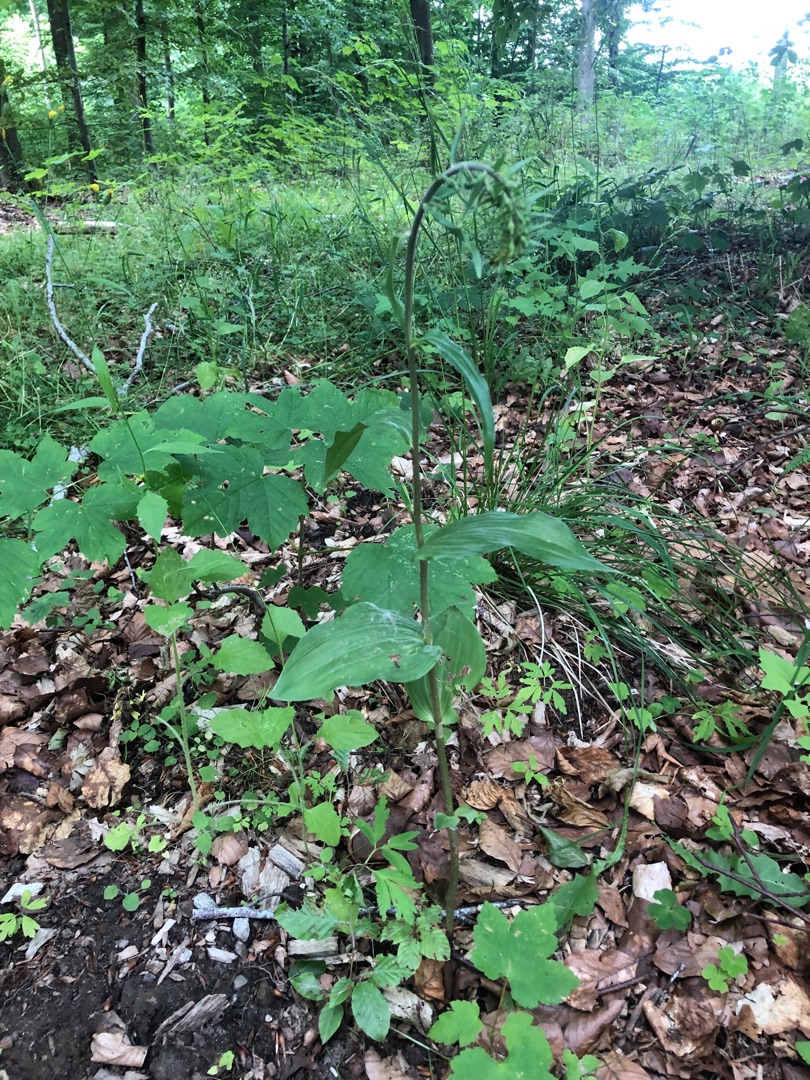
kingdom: Plantae
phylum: Tracheophyta
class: Liliopsida
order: Asparagales
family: Orchidaceae
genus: Epipactis
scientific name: Epipactis helleborine
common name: Skov-hullæbe
